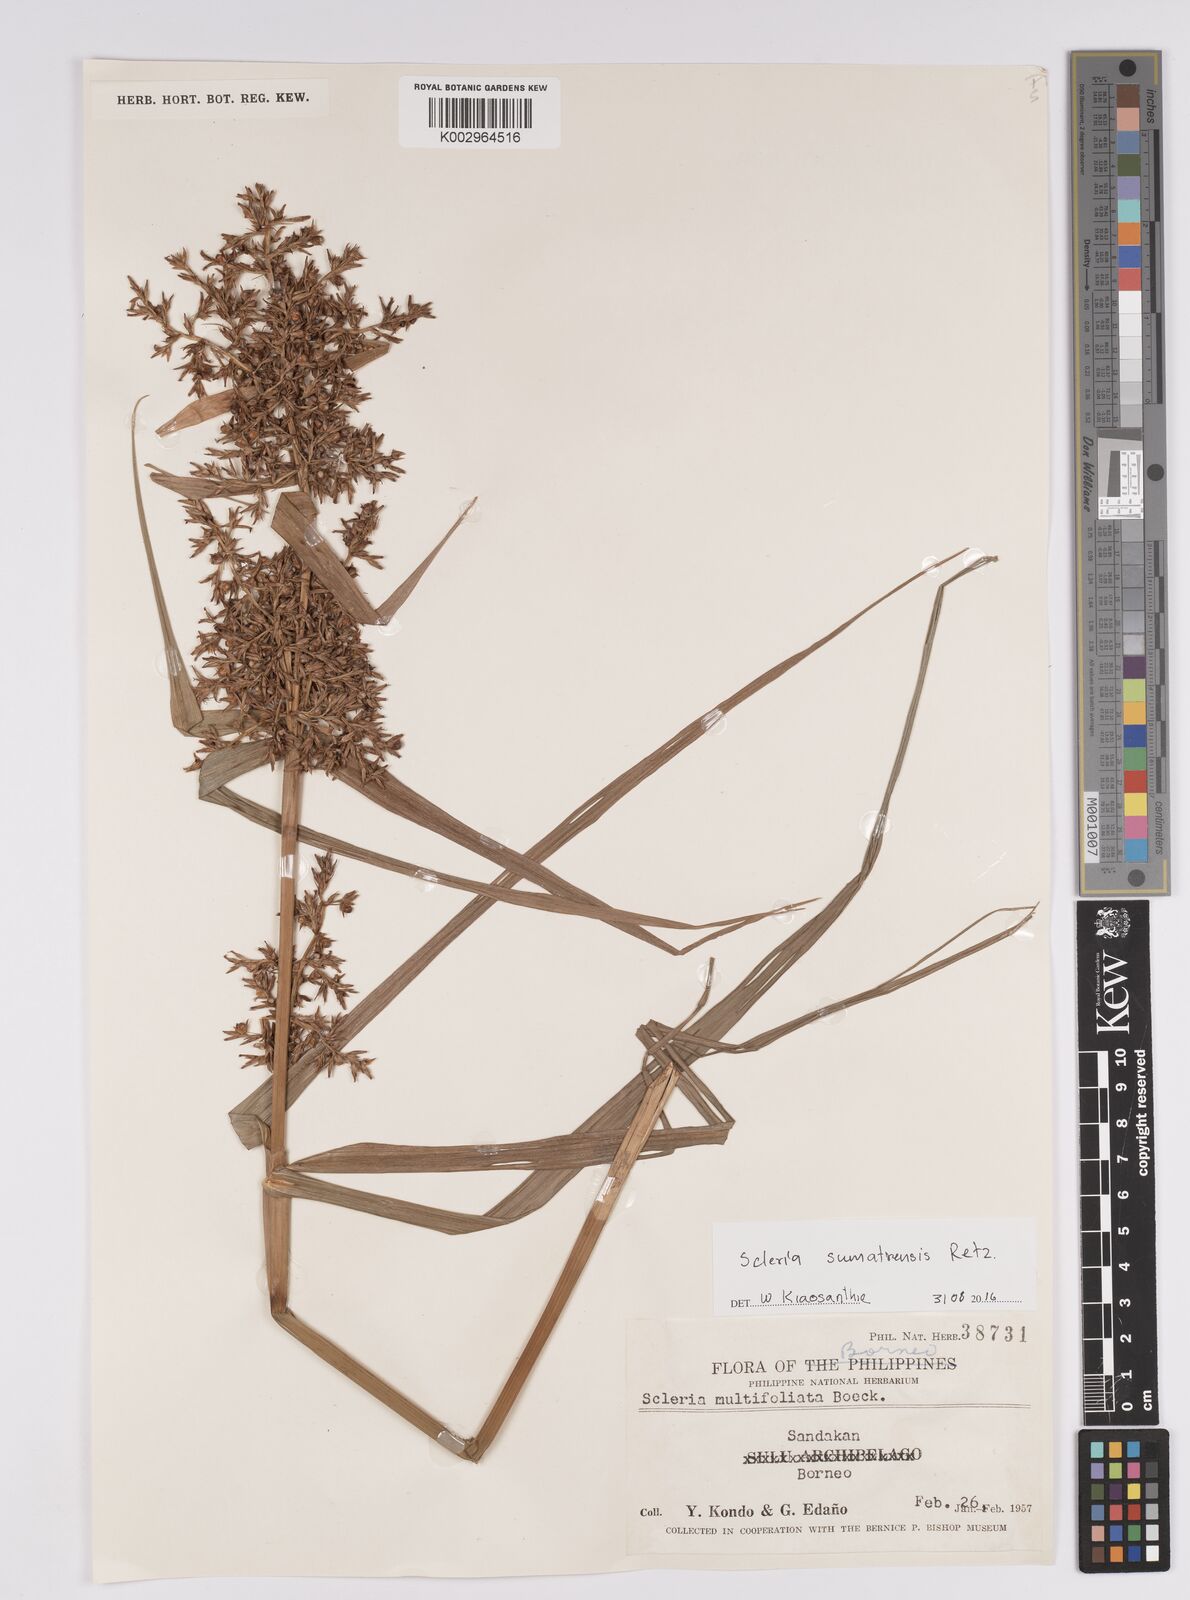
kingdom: Plantae
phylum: Tracheophyta
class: Liliopsida
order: Poales
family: Cyperaceae
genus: Scleria
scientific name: Scleria sumatrensis
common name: Sumatran scleria
